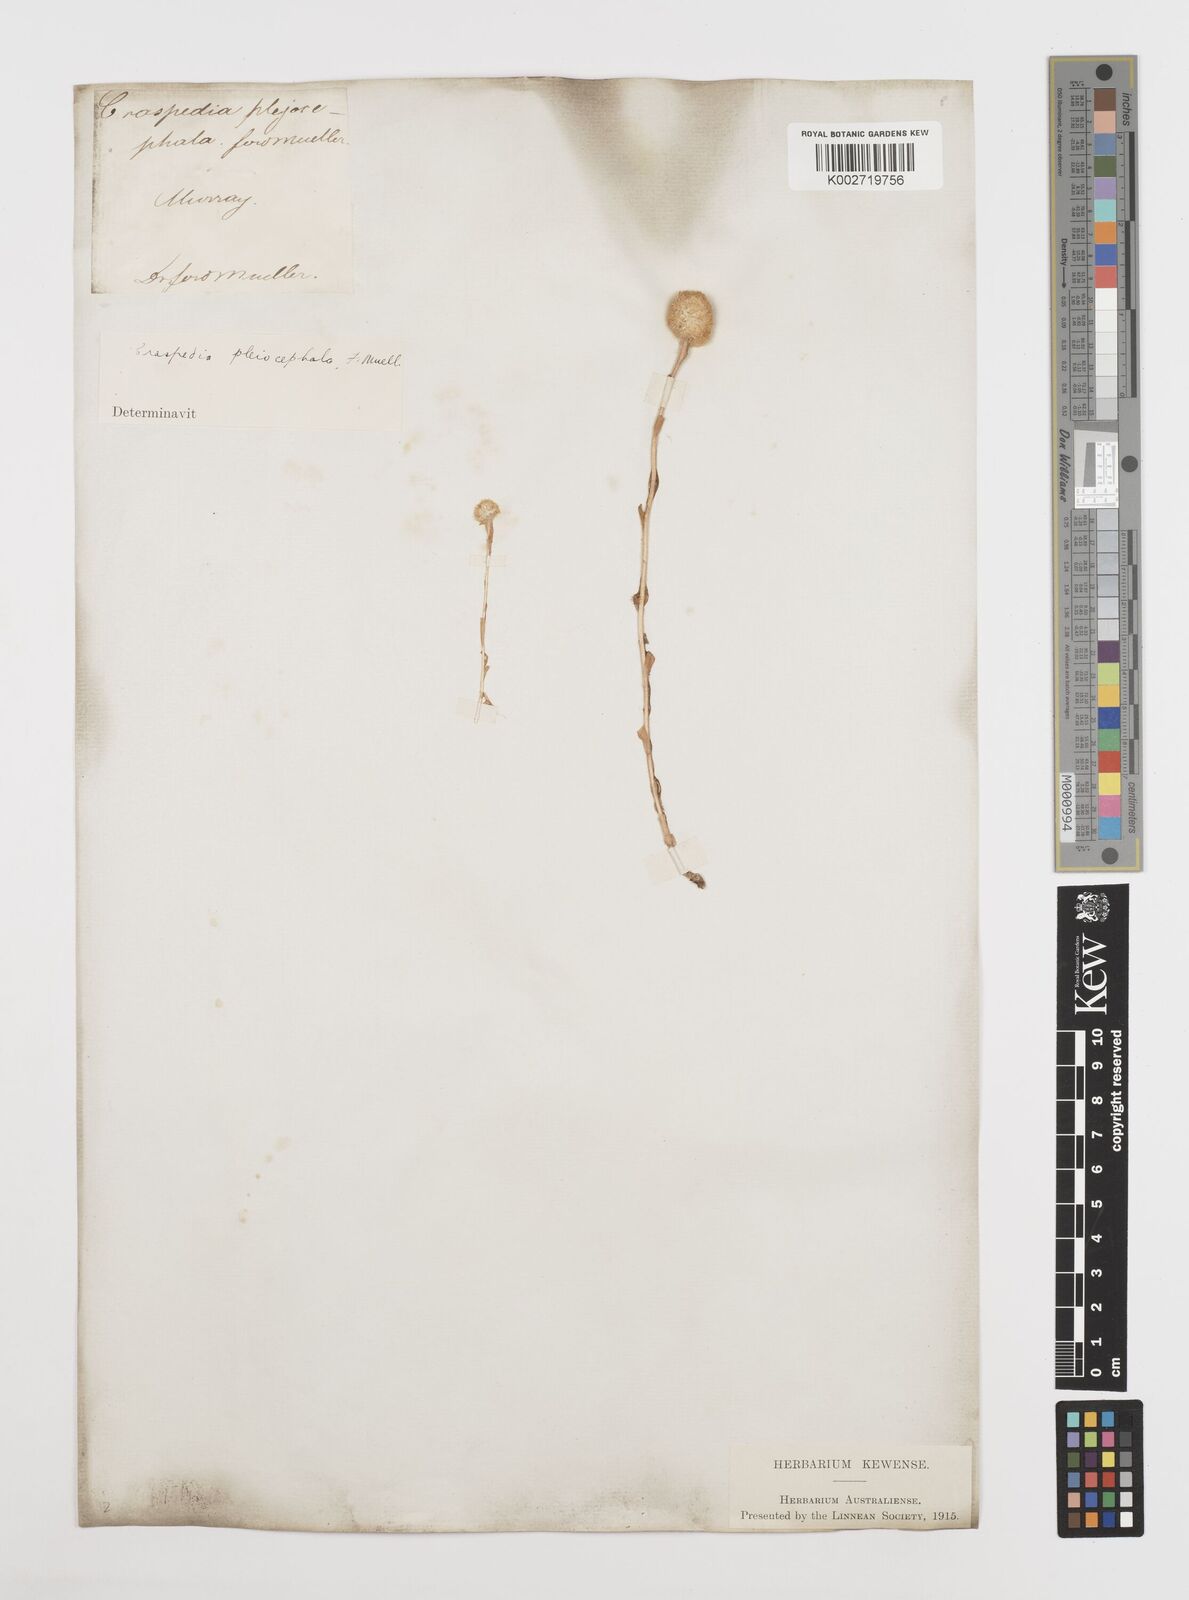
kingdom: Plantae
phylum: Tracheophyta
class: Magnoliopsida
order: Asterales
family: Asteraceae
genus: Pycnosorus
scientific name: Pycnosorus pleiocephalus
